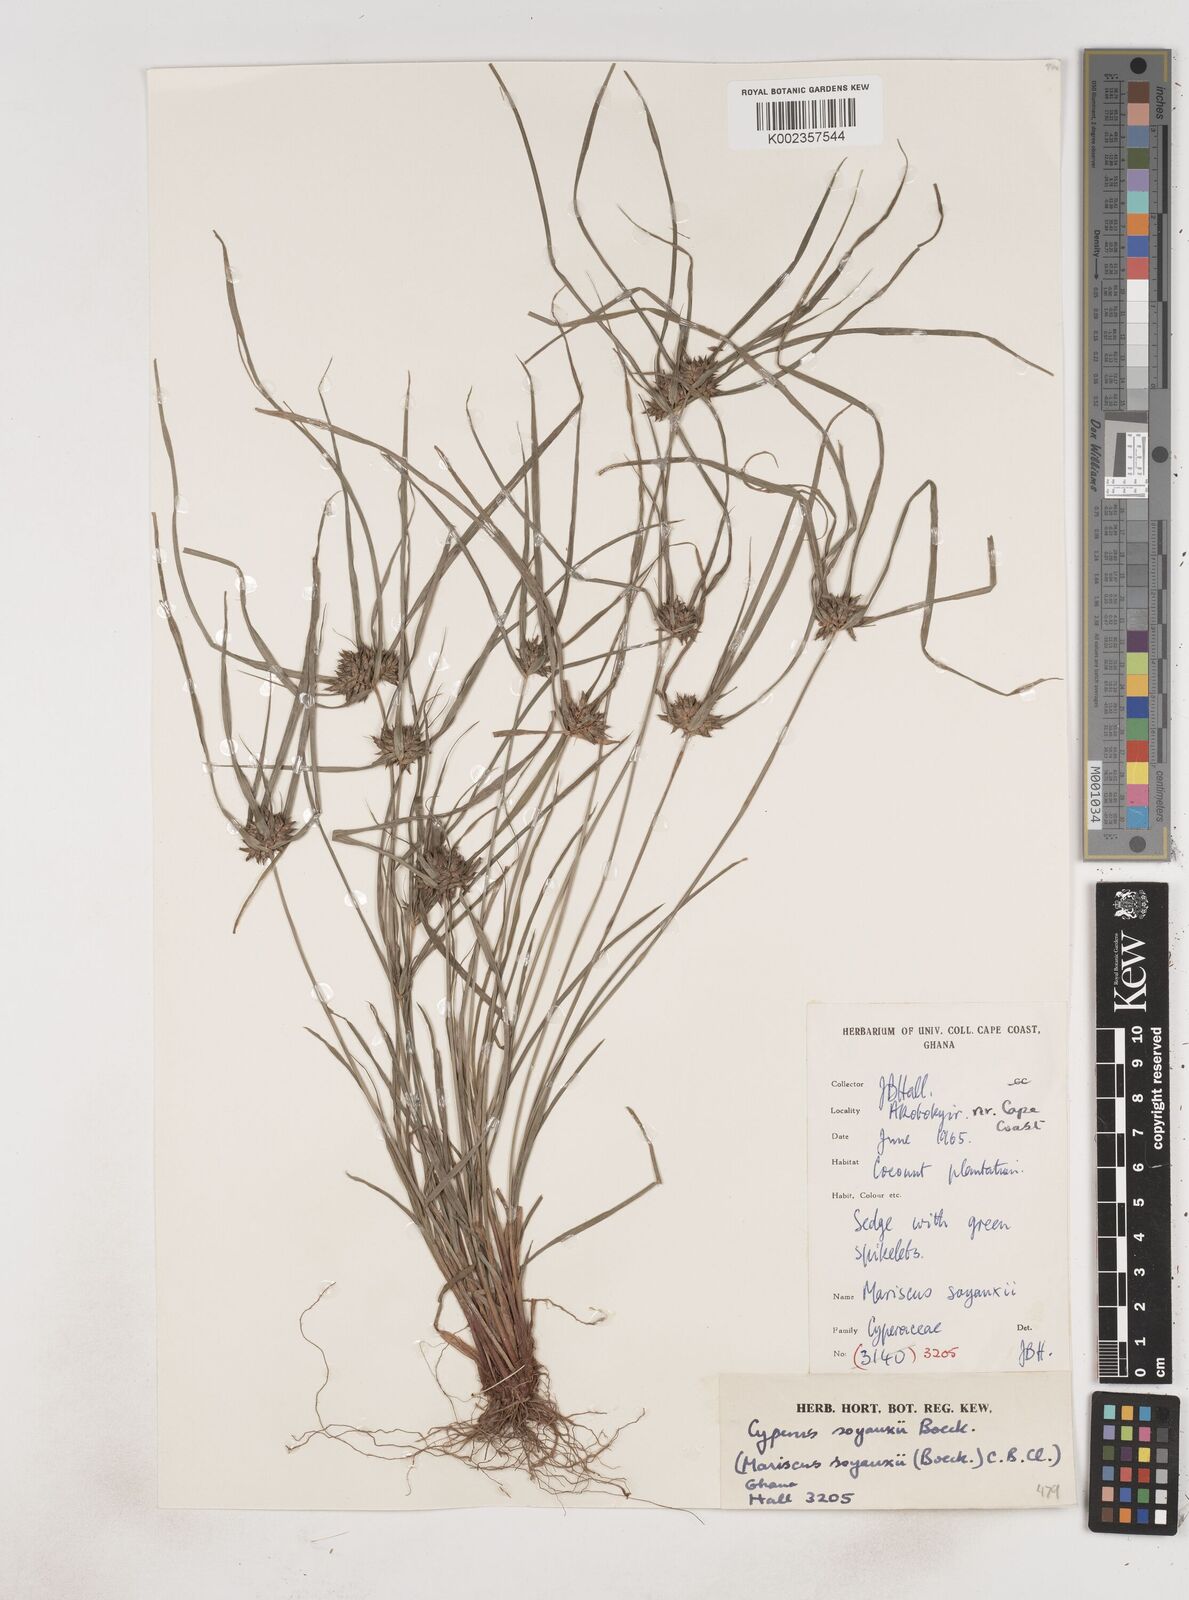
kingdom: Plantae
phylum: Tracheophyta
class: Liliopsida
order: Poales
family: Cyperaceae
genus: Cyperus
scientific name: Cyperus soyauxii
